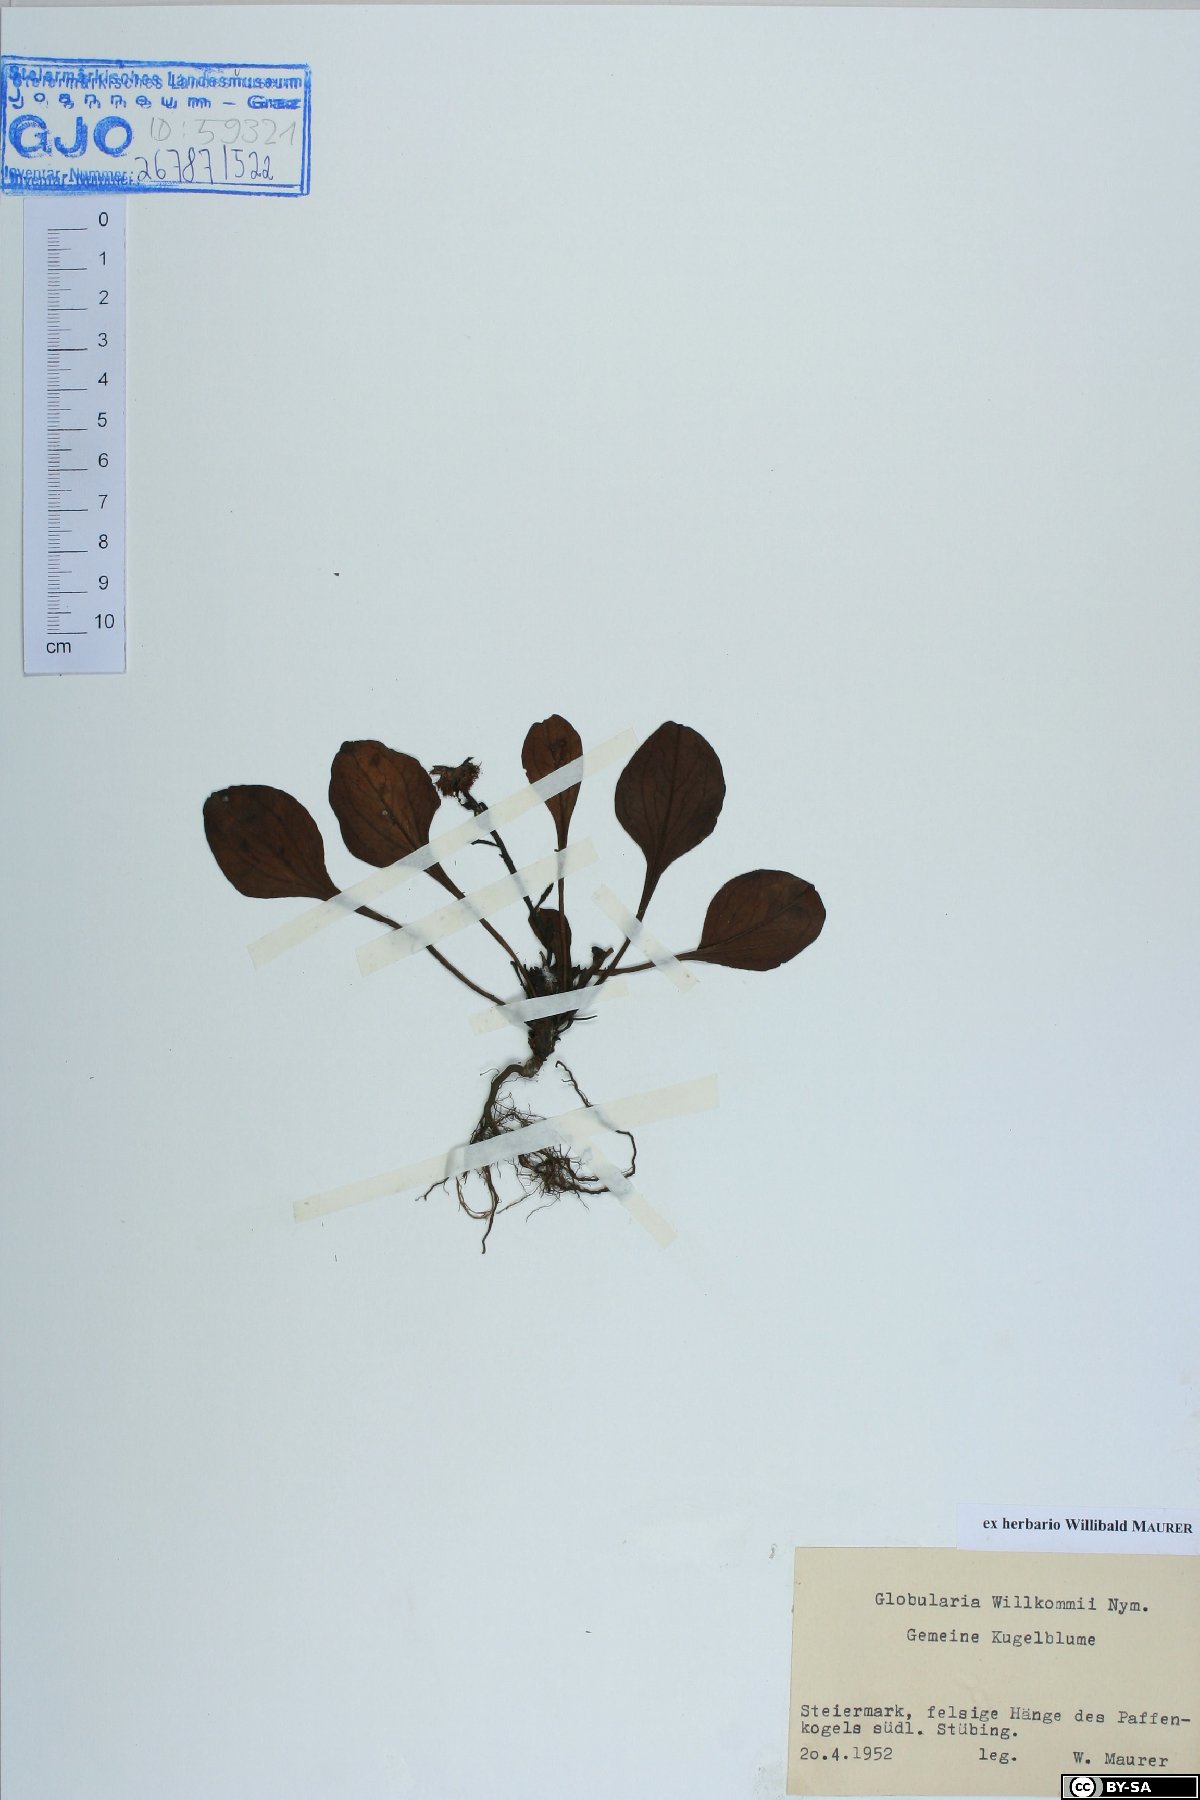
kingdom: Plantae
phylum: Tracheophyta
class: Magnoliopsida
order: Lamiales
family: Plantaginaceae
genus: Globularia
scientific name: Globularia bisnagarica
